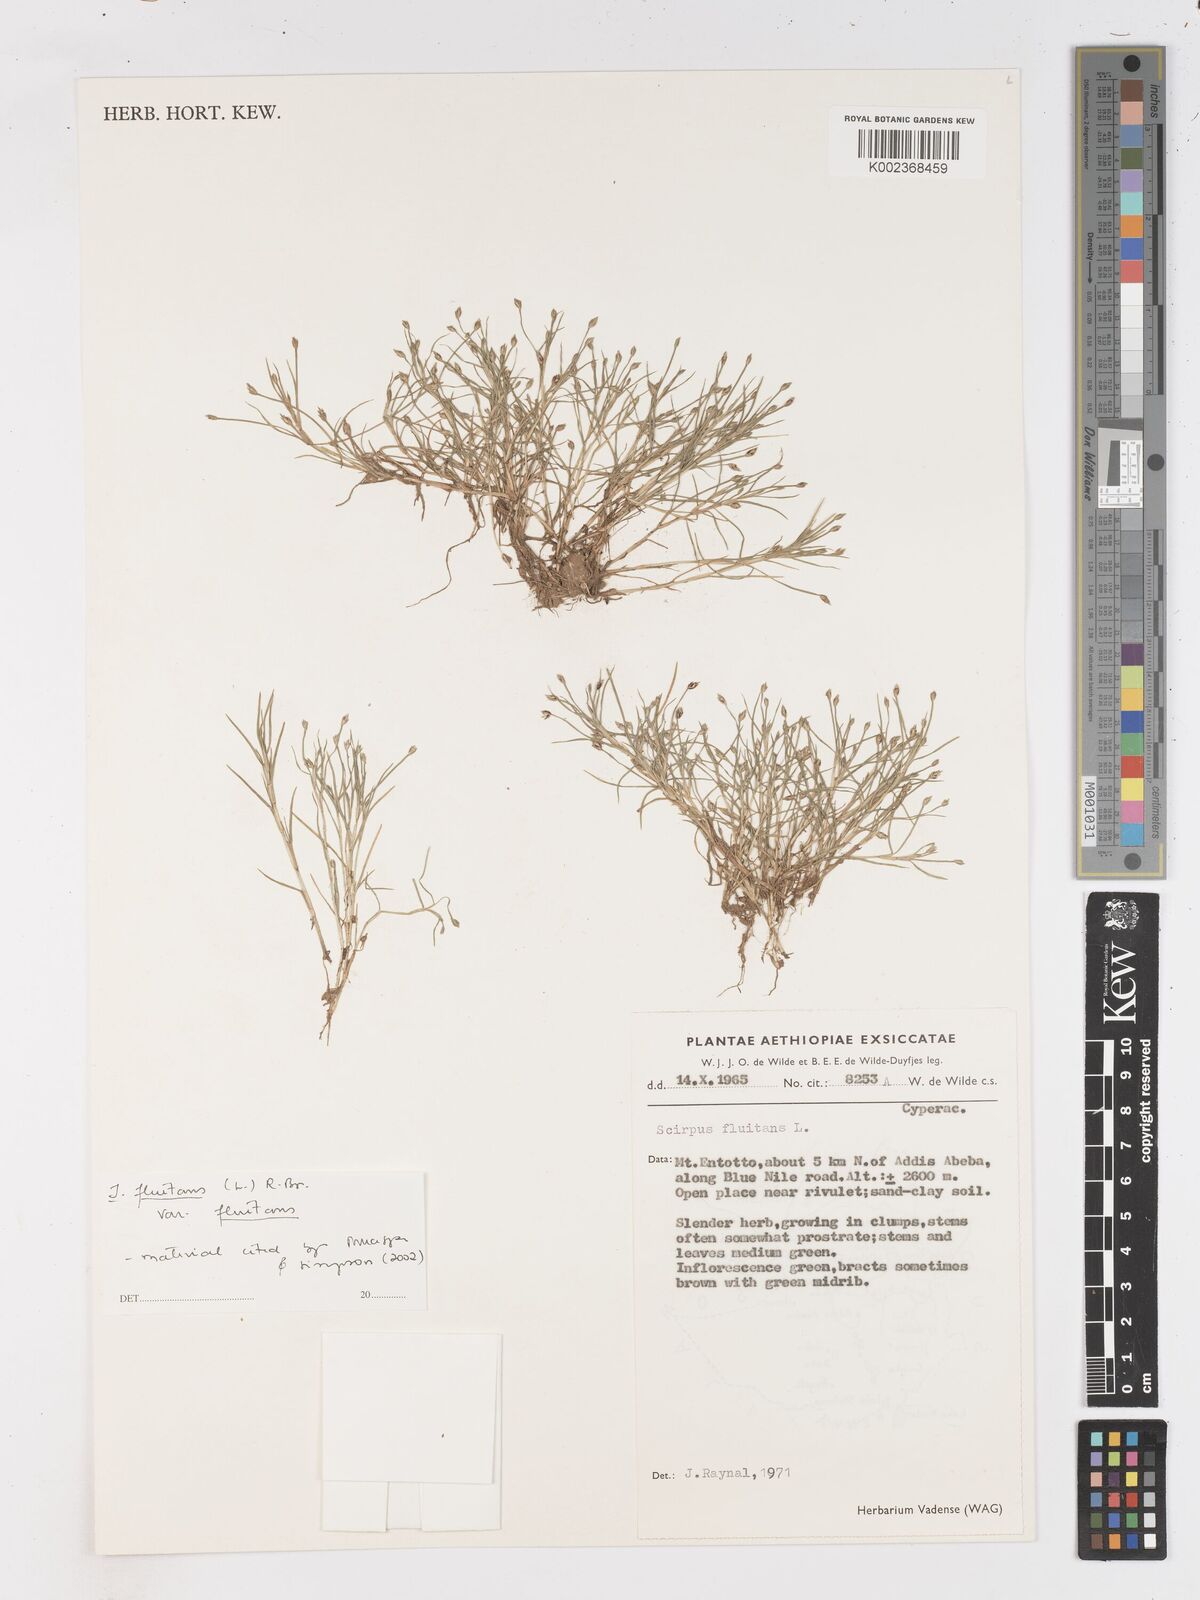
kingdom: Plantae
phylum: Tracheophyta
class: Liliopsida
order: Poales
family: Cyperaceae
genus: Isolepis
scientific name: Isolepis fluitans
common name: Floating club-rush
